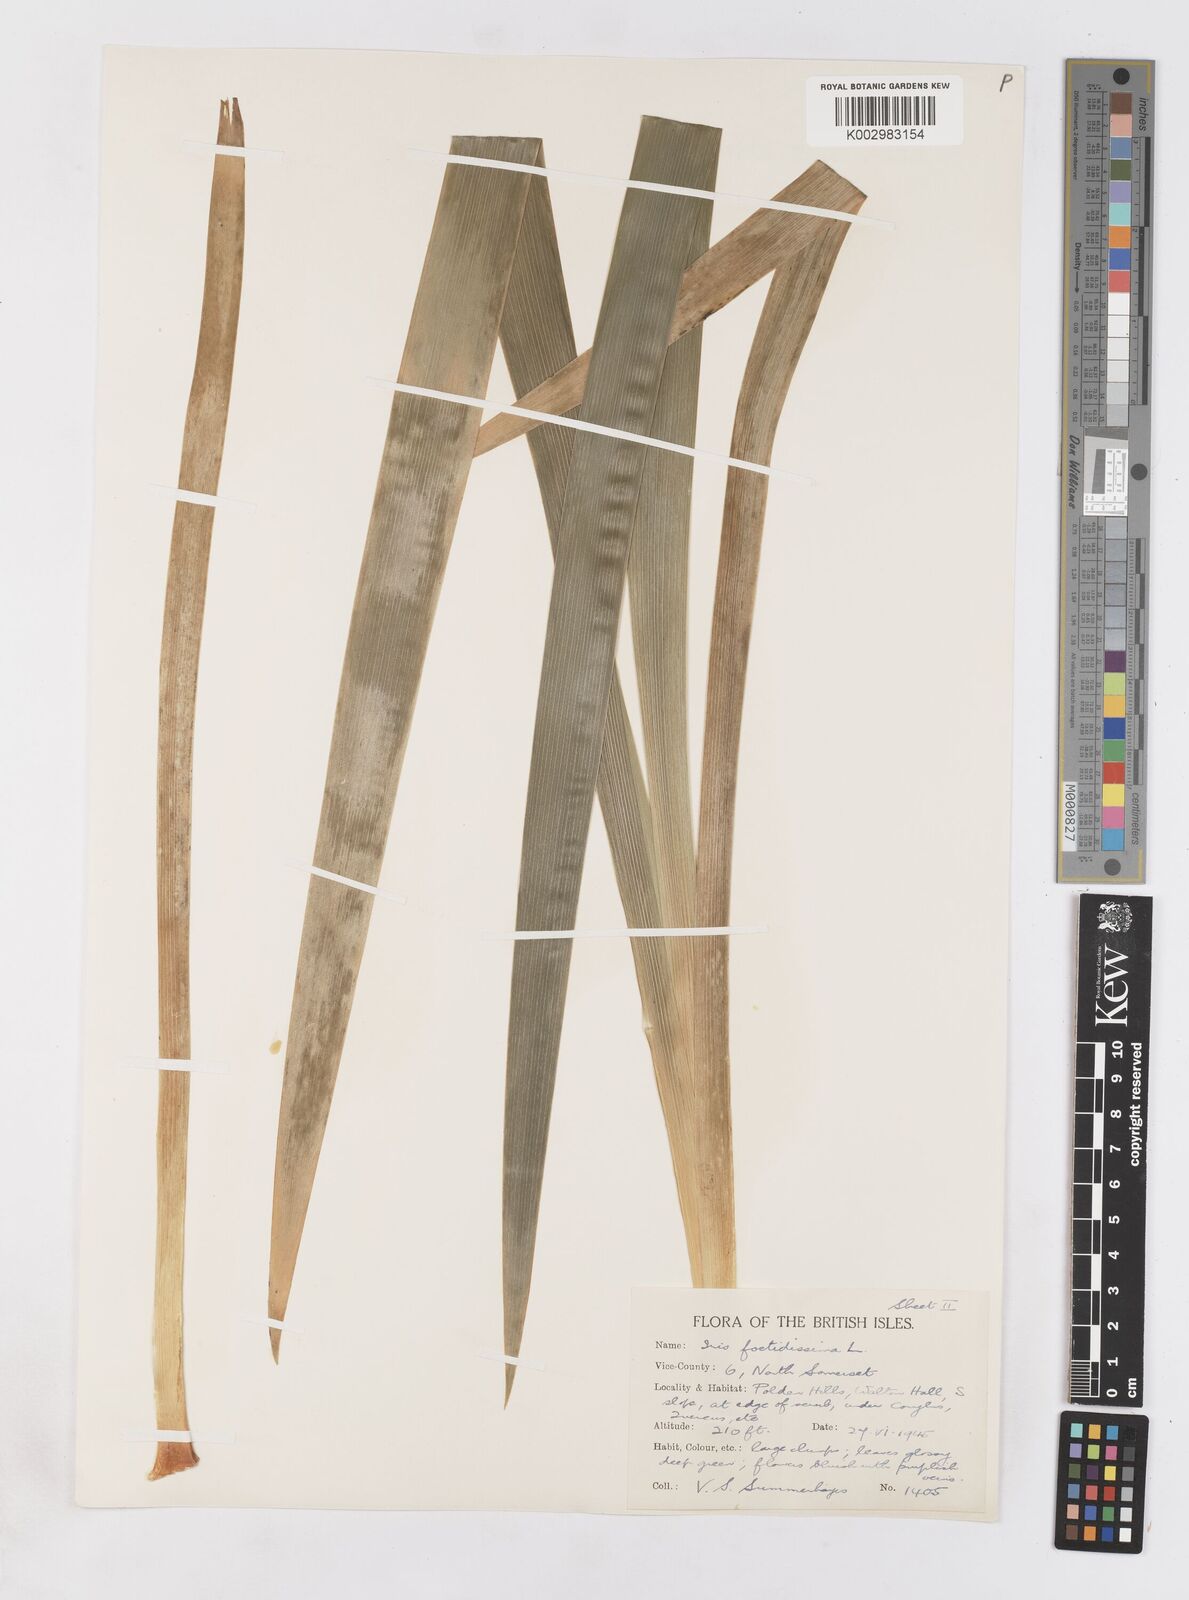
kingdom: Plantae
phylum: Tracheophyta
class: Liliopsida
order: Asparagales
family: Iridaceae
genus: Iris
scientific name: Iris foetidissima
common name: Stinking iris
